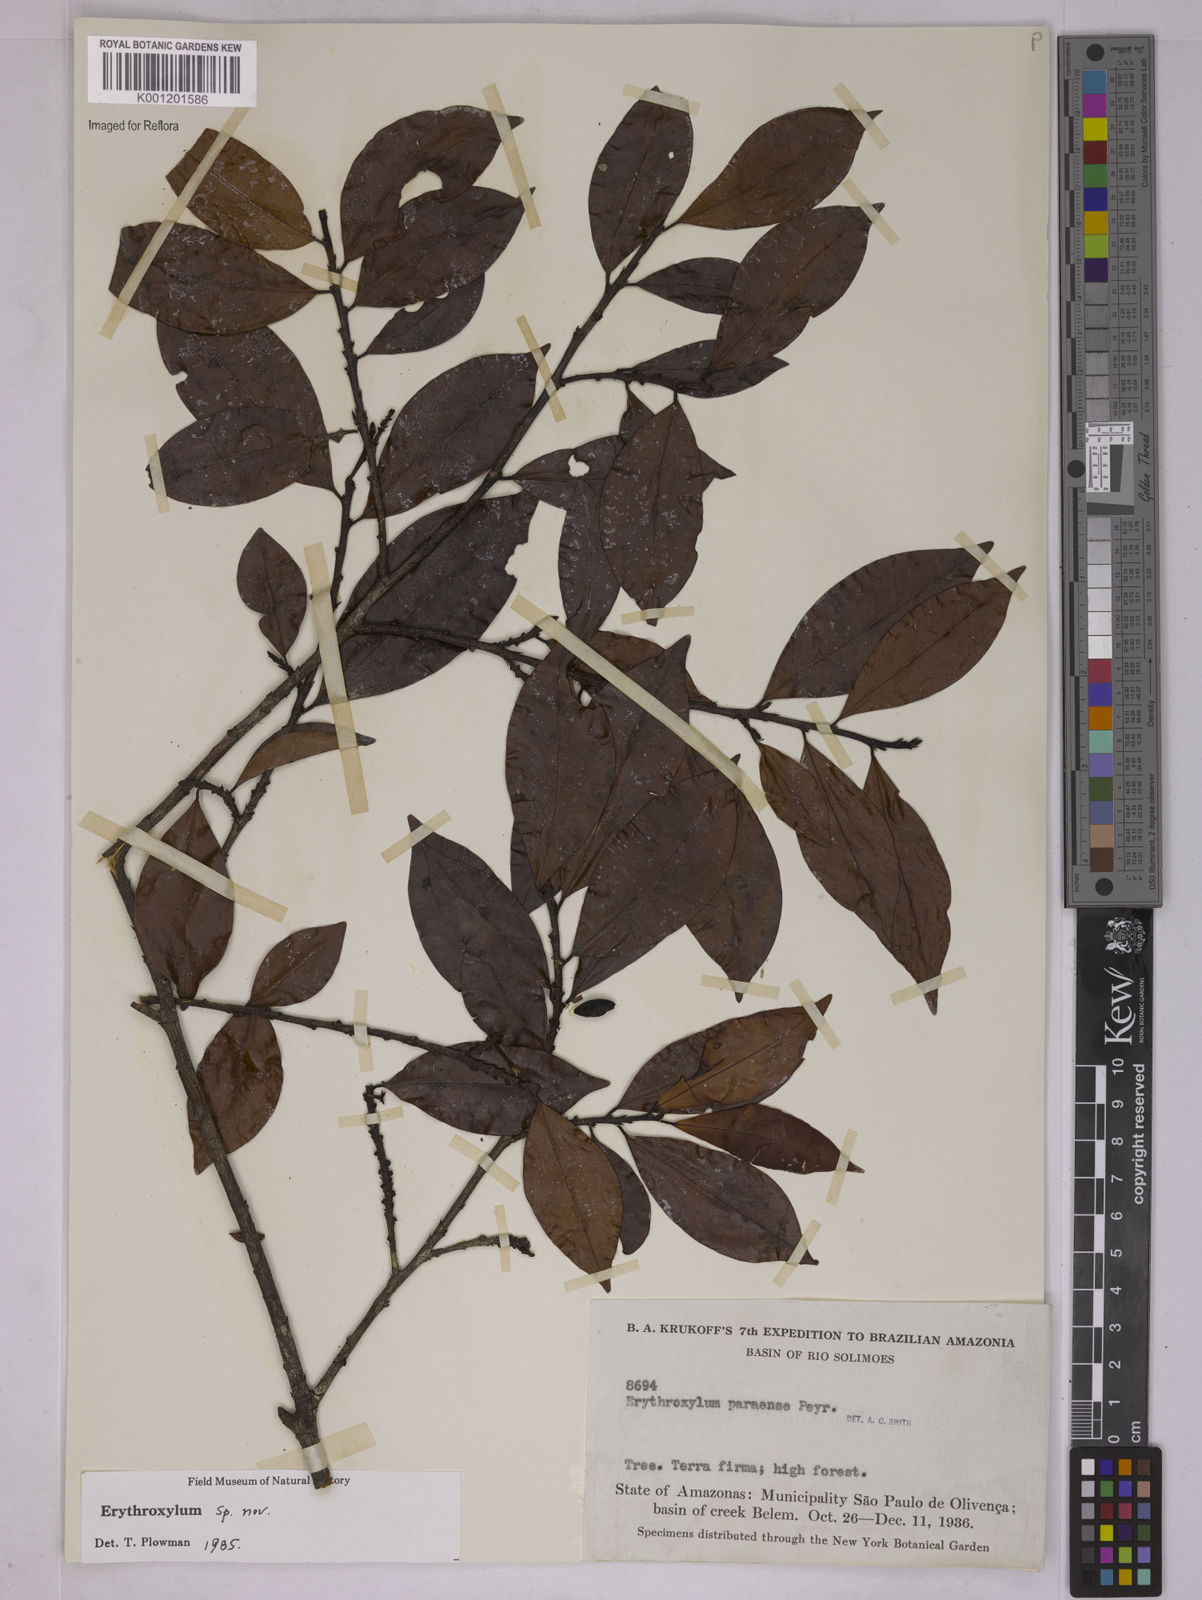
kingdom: Plantae
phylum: Tracheophyta
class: Magnoliopsida
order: Malpighiales
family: Erythroxylaceae
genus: Erythroxylum
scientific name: Erythroxylum
